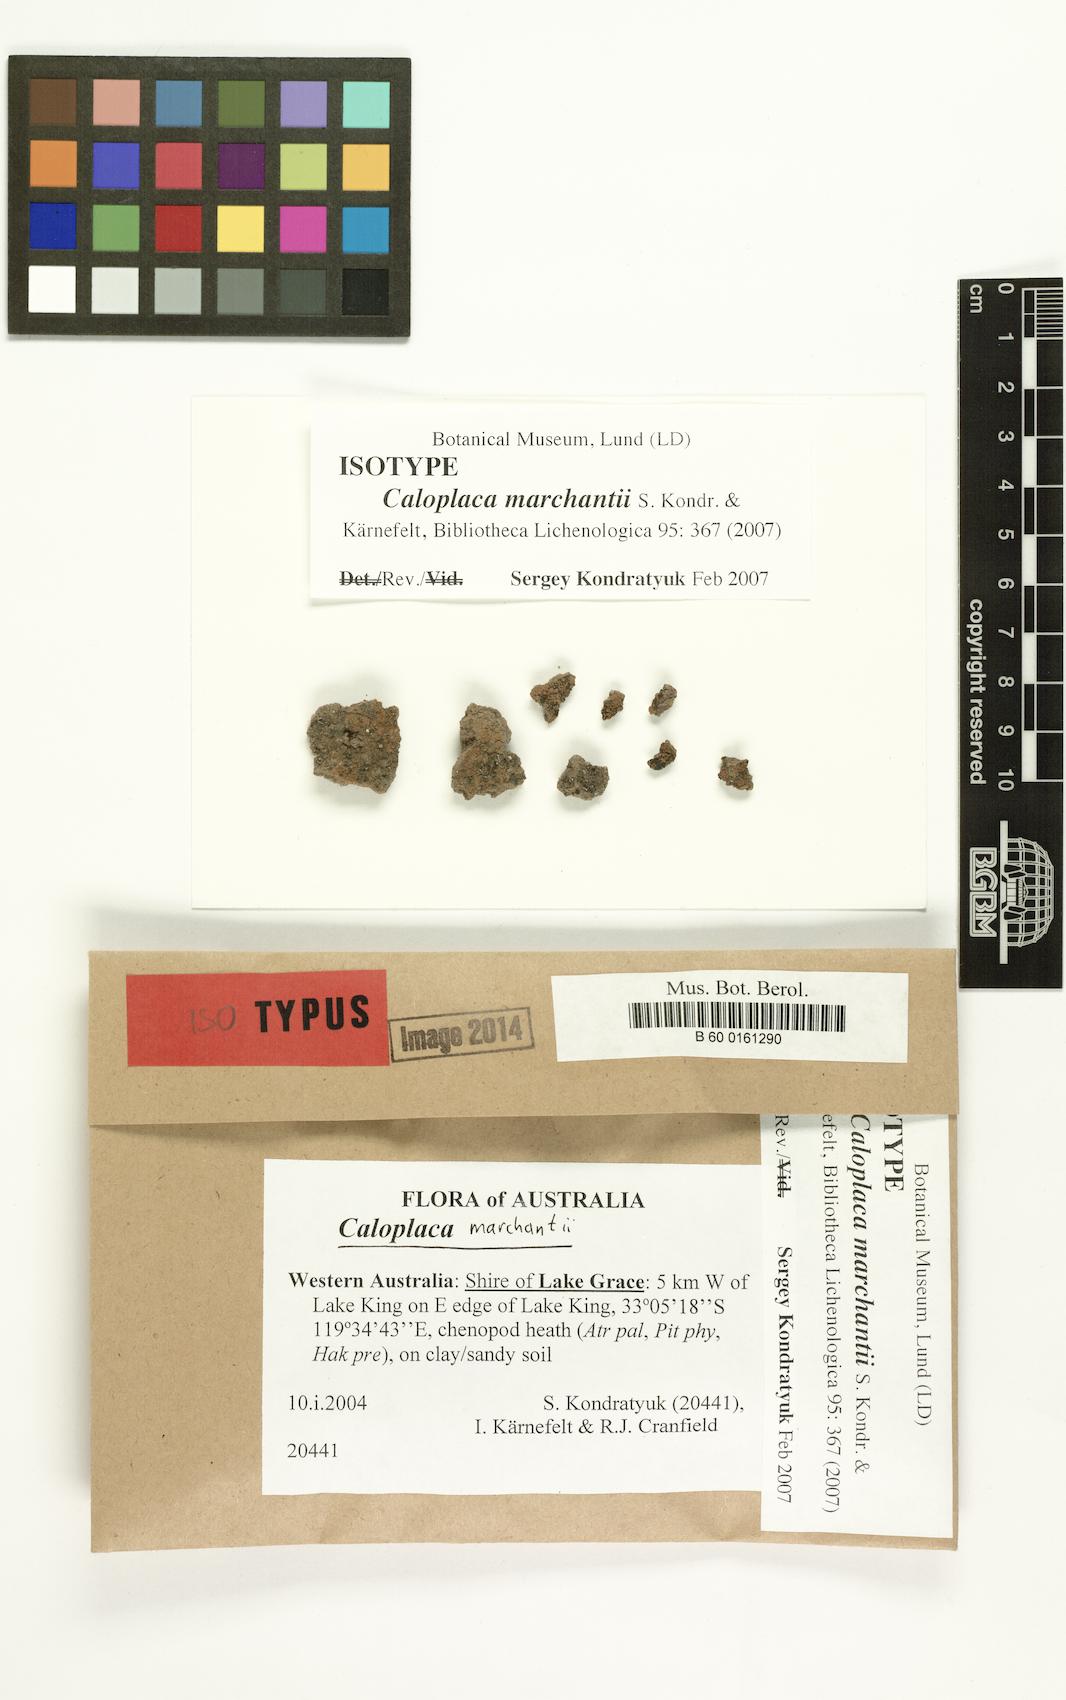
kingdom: Fungi
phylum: Ascomycota
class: Lecanoromycetes
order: Teloschistales
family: Teloschistaceae
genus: Nevilleiella
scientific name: Nevilleiella marchantii
